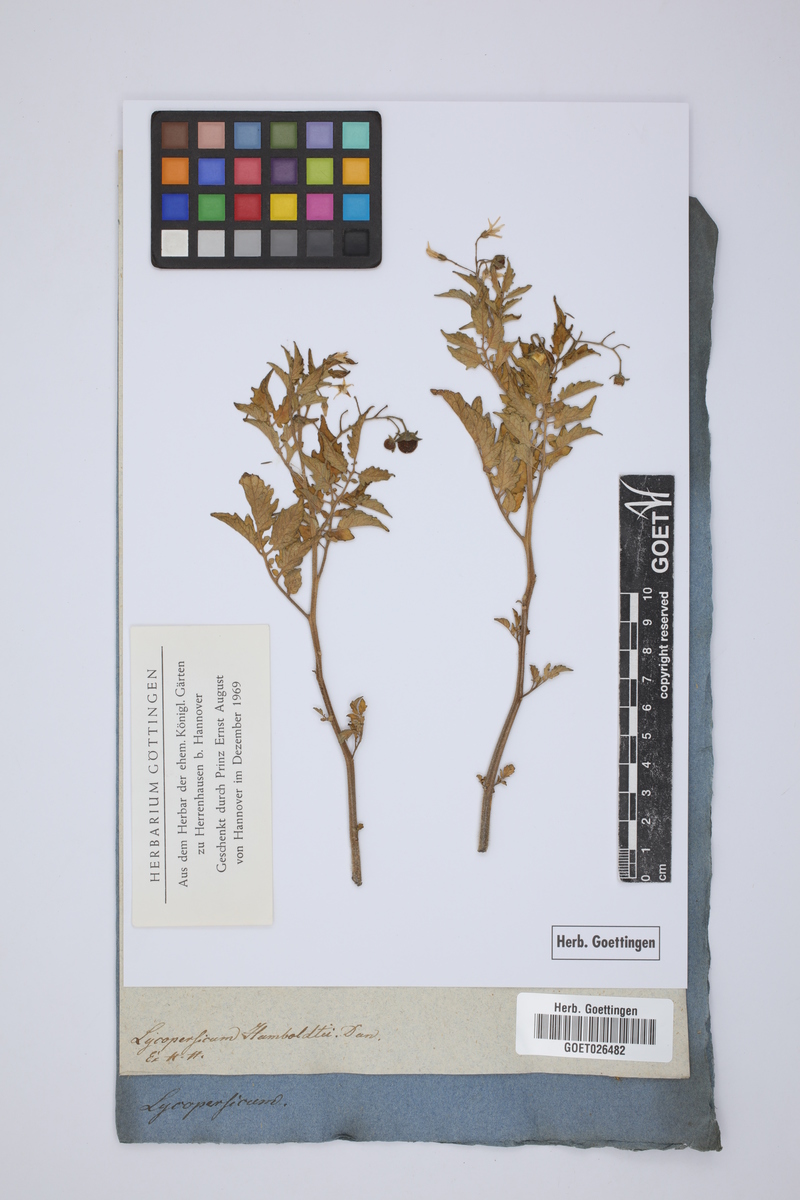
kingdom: Plantae
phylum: Tracheophyta
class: Magnoliopsida
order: Solanales
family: Solanaceae
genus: Solanum
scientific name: Solanum
